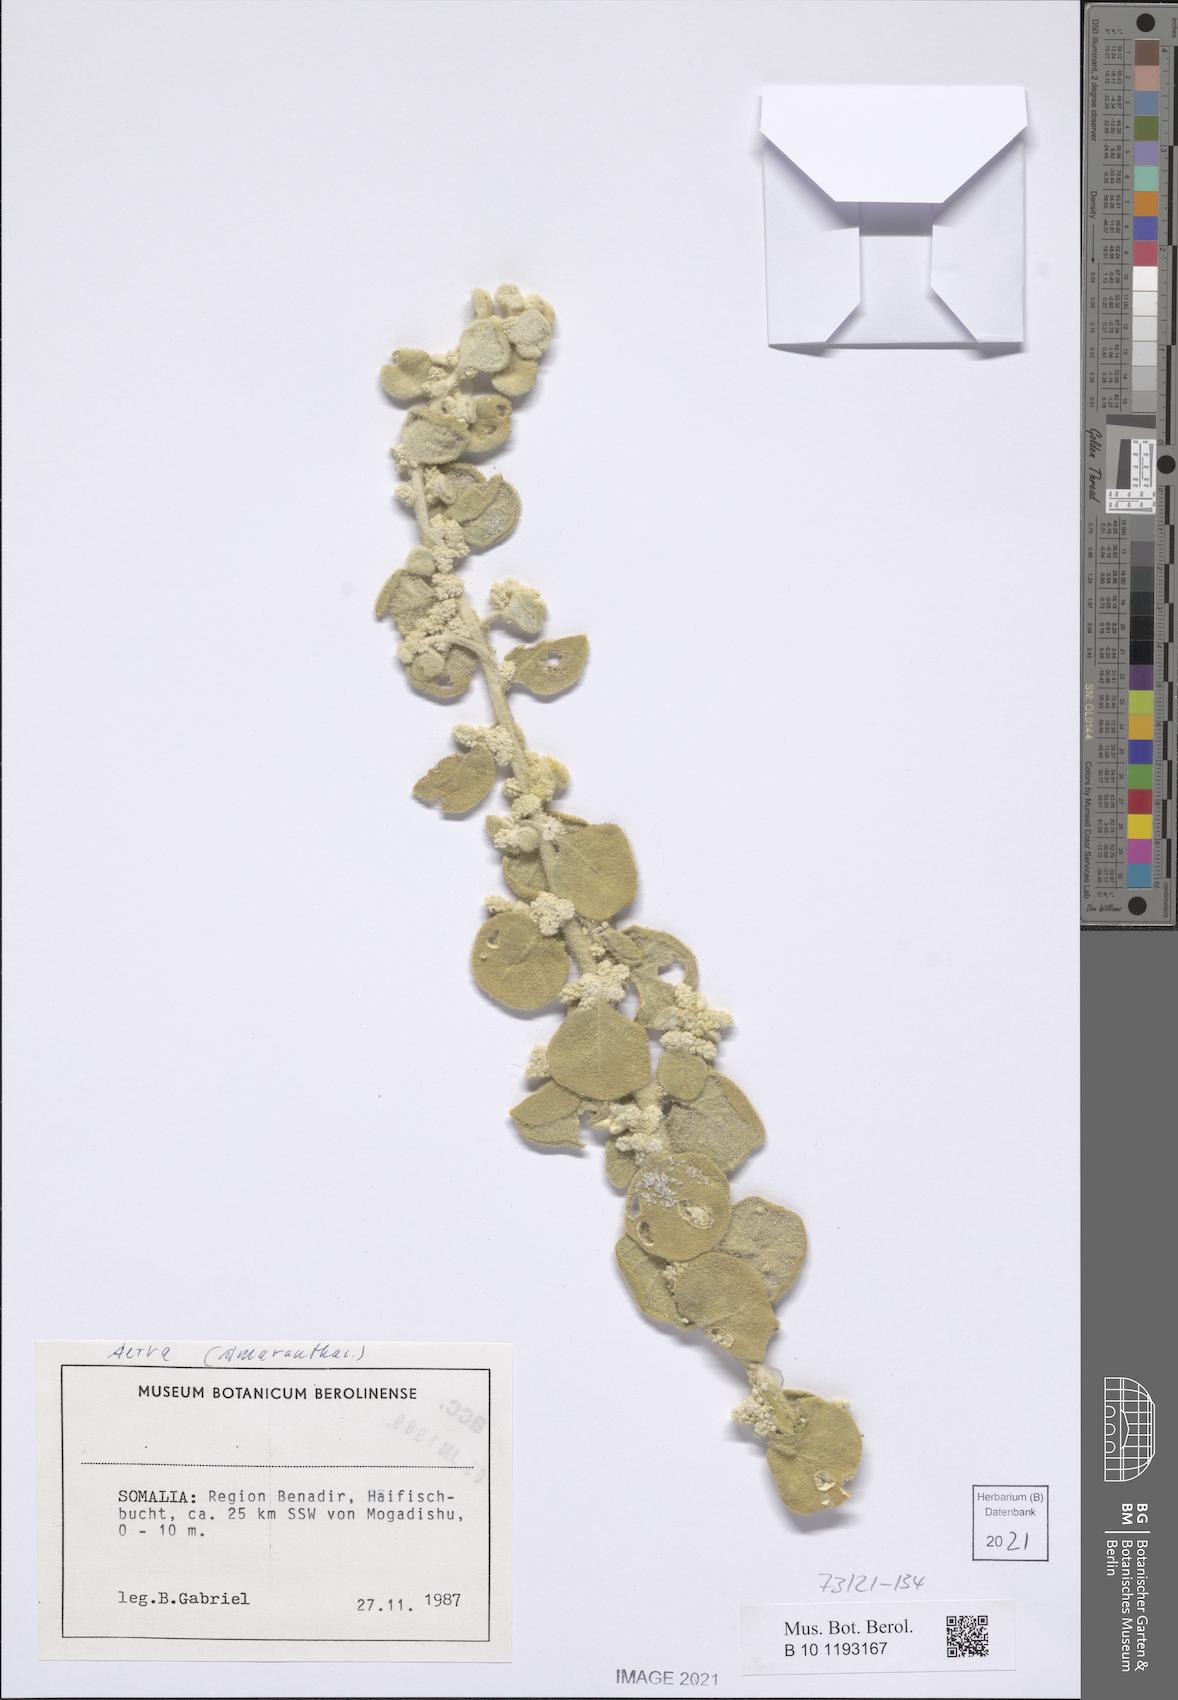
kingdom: Plantae
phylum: Tracheophyta
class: Magnoliopsida
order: Caryophyllales
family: Amaranthaceae
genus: Ouret
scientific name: Ouret lanata
